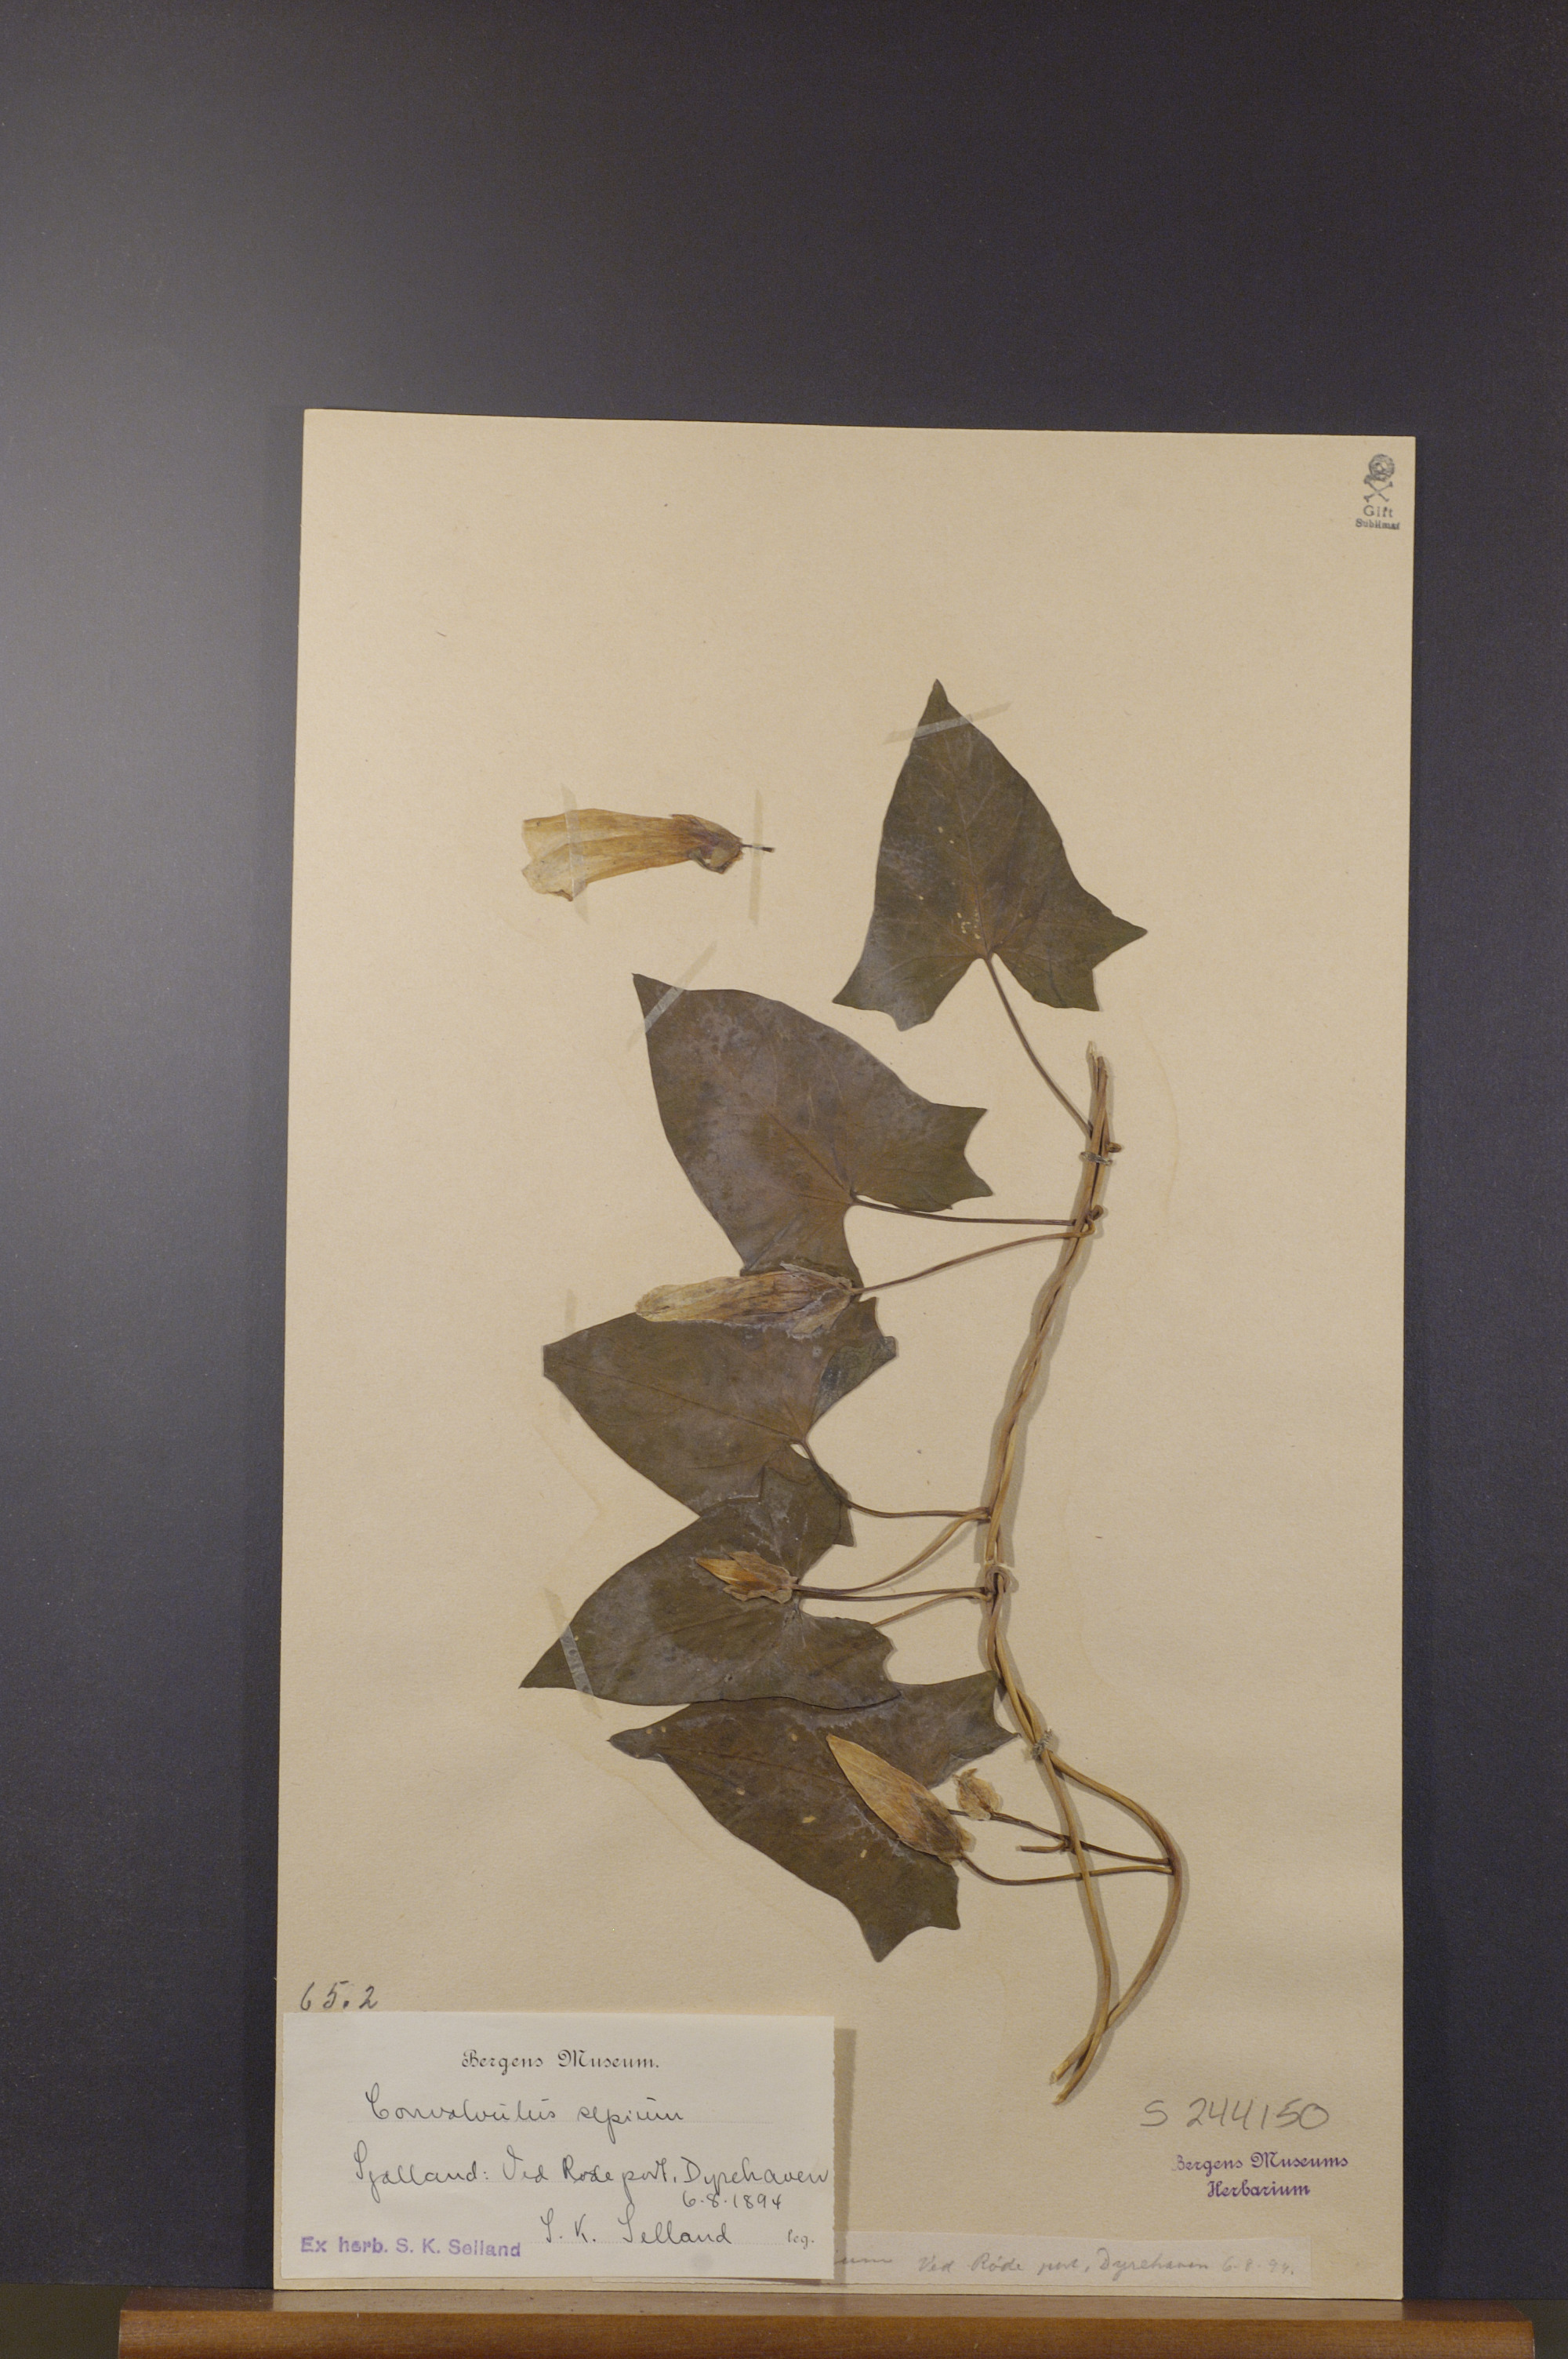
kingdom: Plantae
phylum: Tracheophyta
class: Magnoliopsida
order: Solanales
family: Convolvulaceae
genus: Calystegia
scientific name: Calystegia sepium
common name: Hedge bindweed
